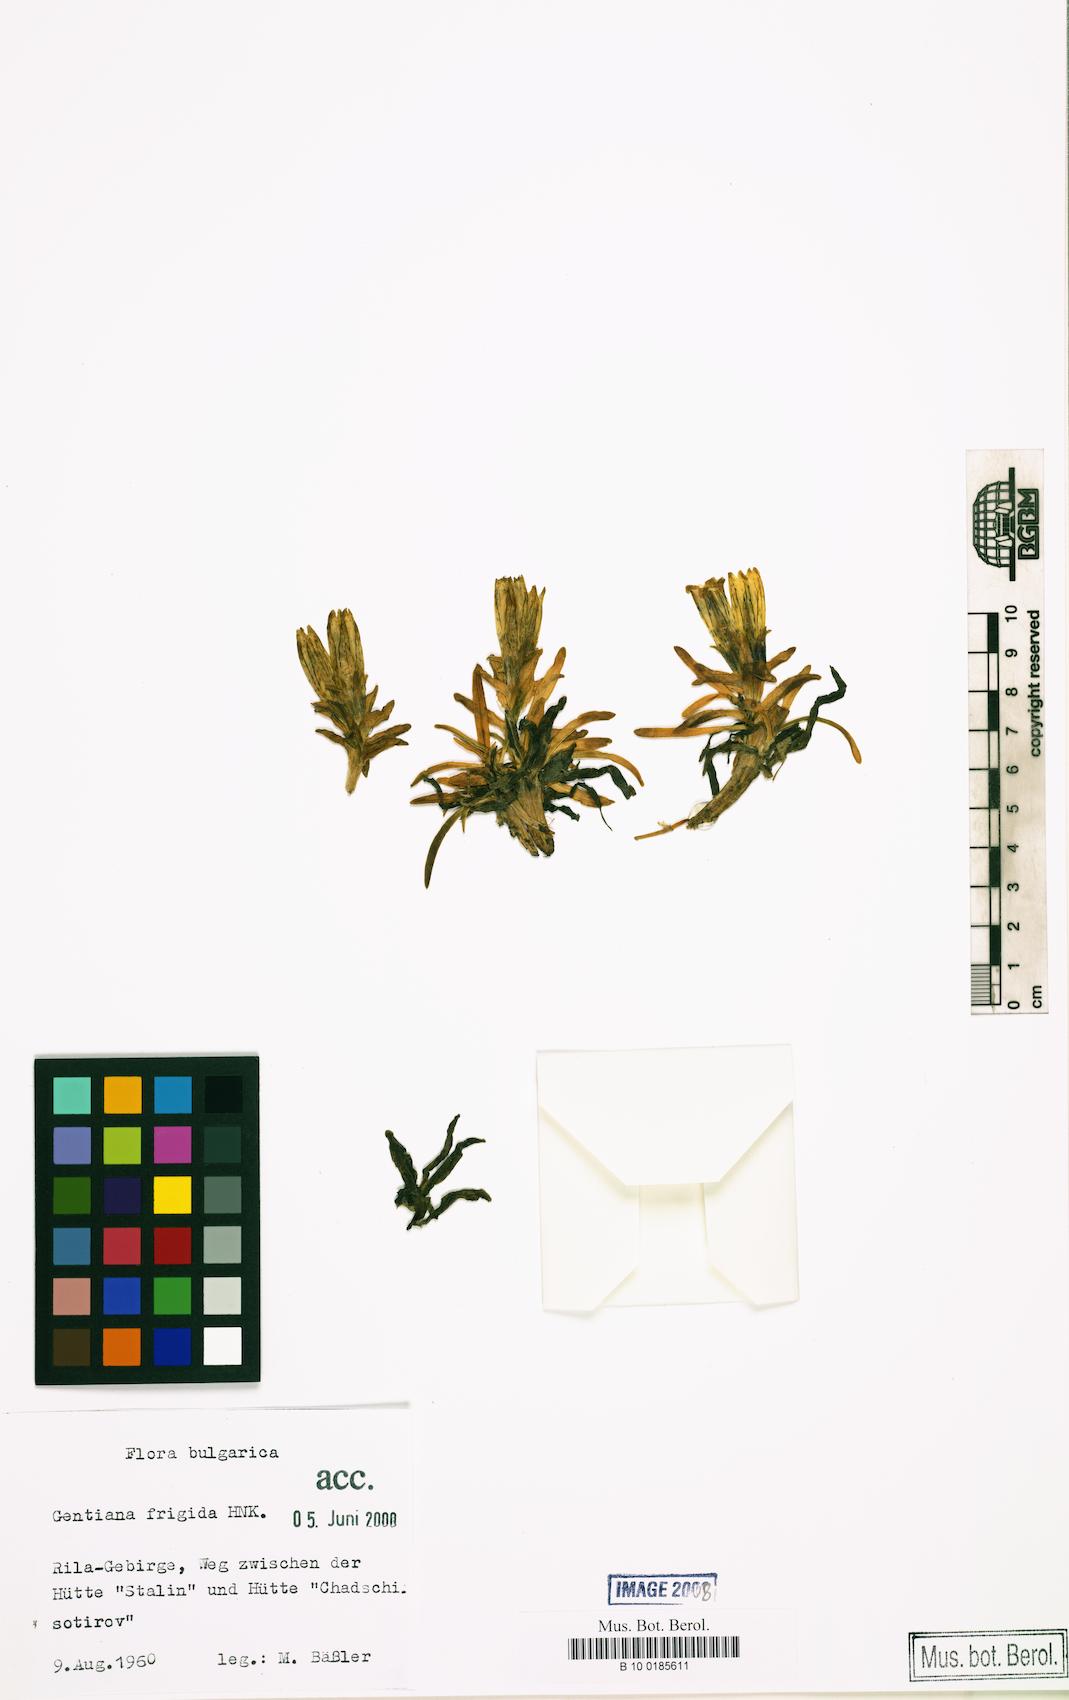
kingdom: Plantae
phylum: Tracheophyta
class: Magnoliopsida
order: Gentianales
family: Gentianaceae
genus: Gentiana
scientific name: Gentiana frigida
